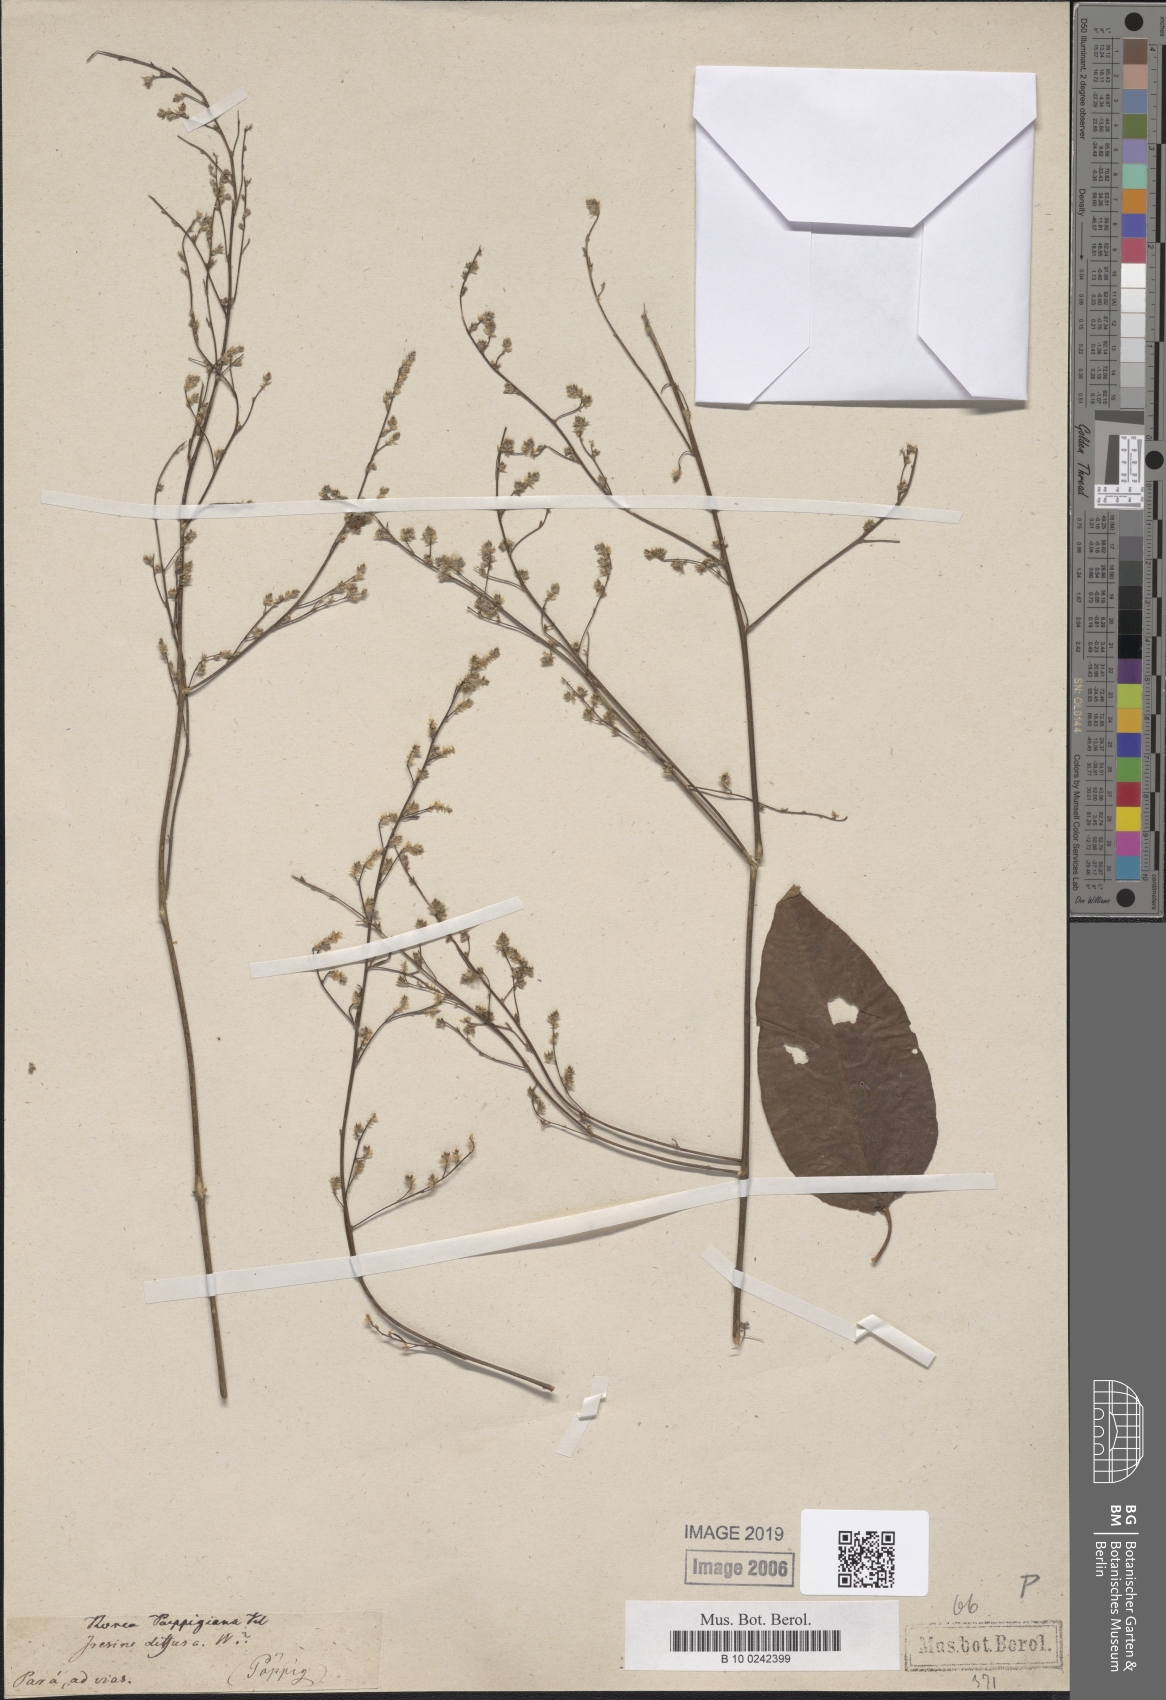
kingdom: Plantae
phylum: Tracheophyta
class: Magnoliopsida
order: Caryophyllales
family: Amaranthaceae
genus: Iresine
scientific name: Iresine angustifolia
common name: White snowplant
